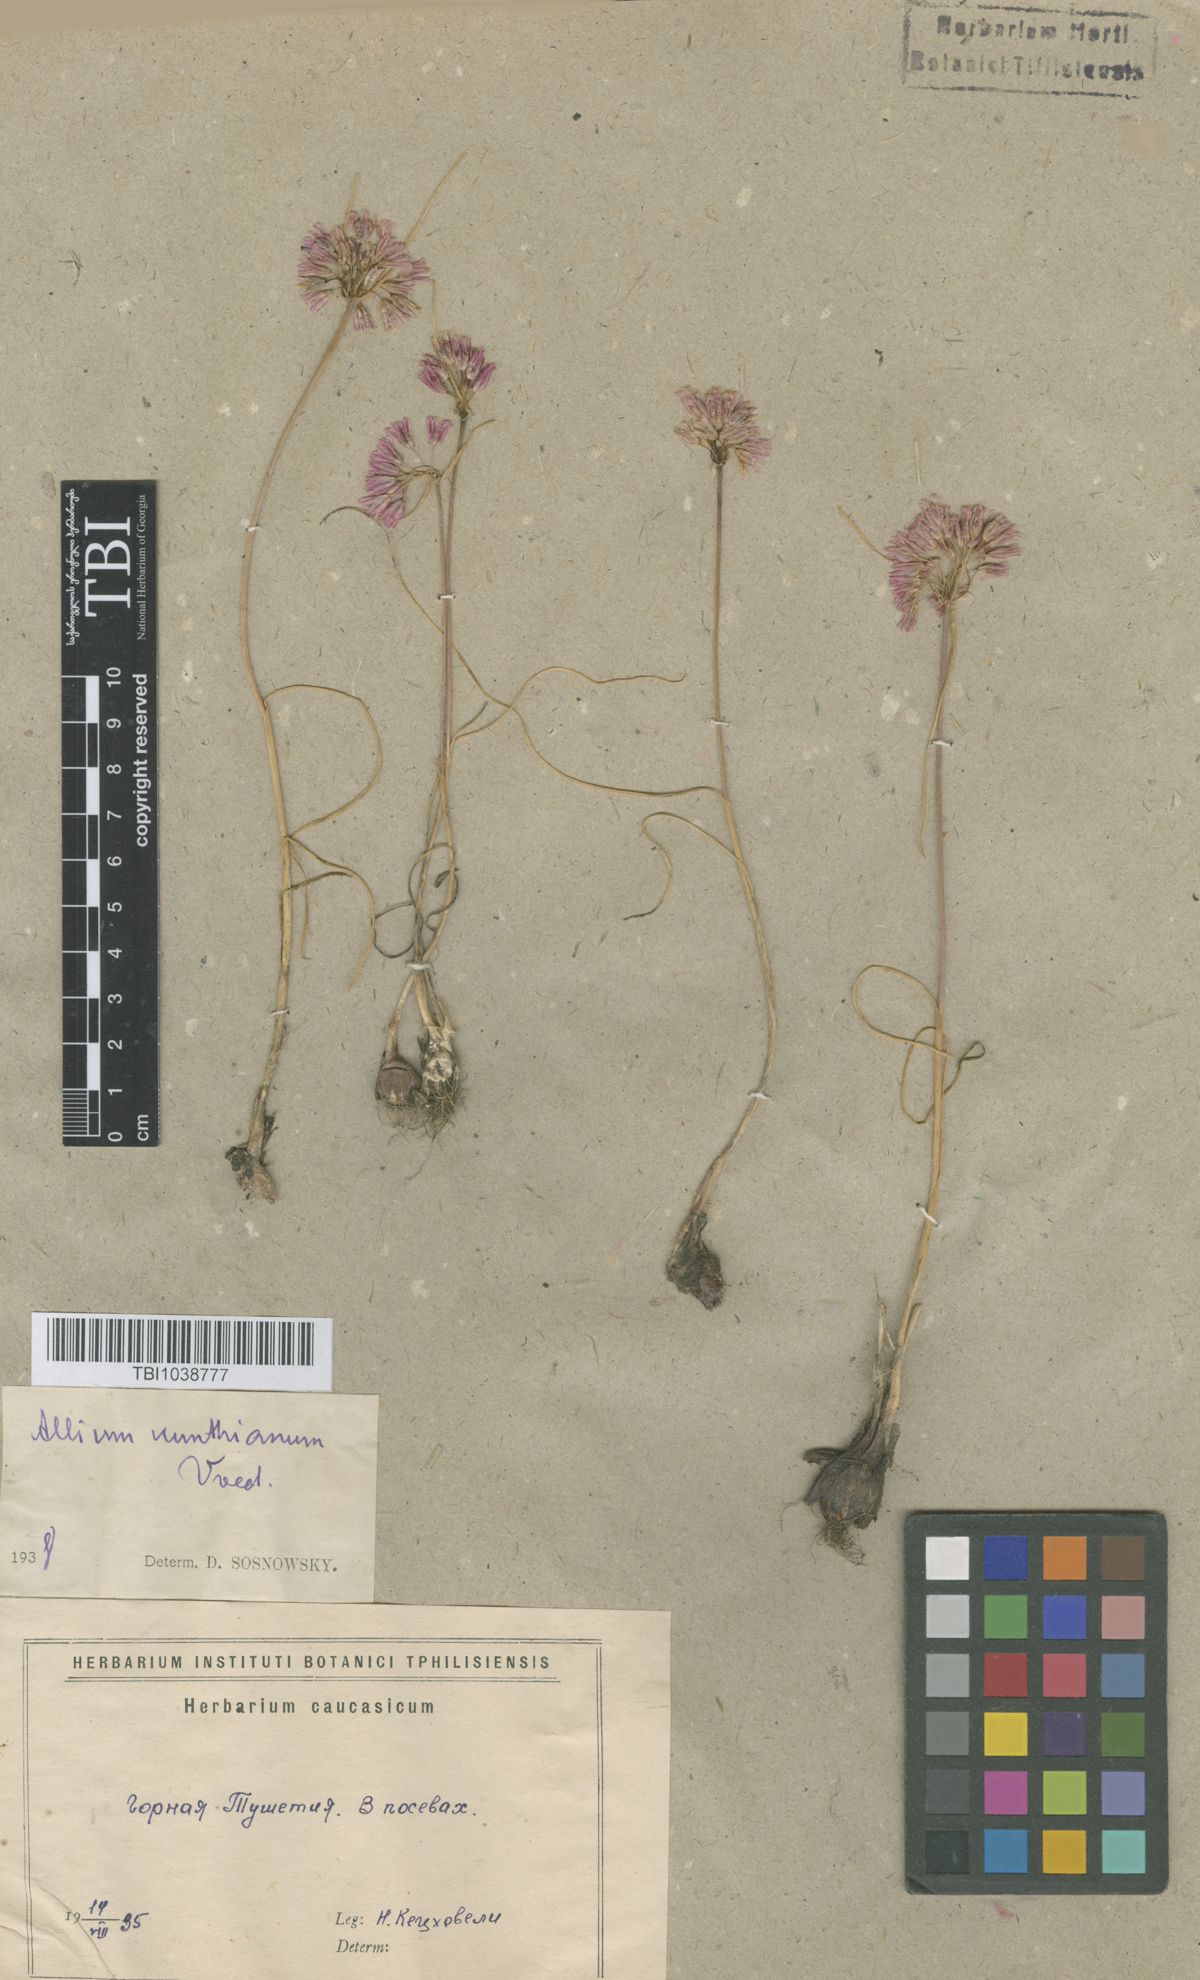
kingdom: Plantae
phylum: Tracheophyta
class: Liliopsida
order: Asparagales
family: Amaryllidaceae
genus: Allium
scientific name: Allium kunthianum
